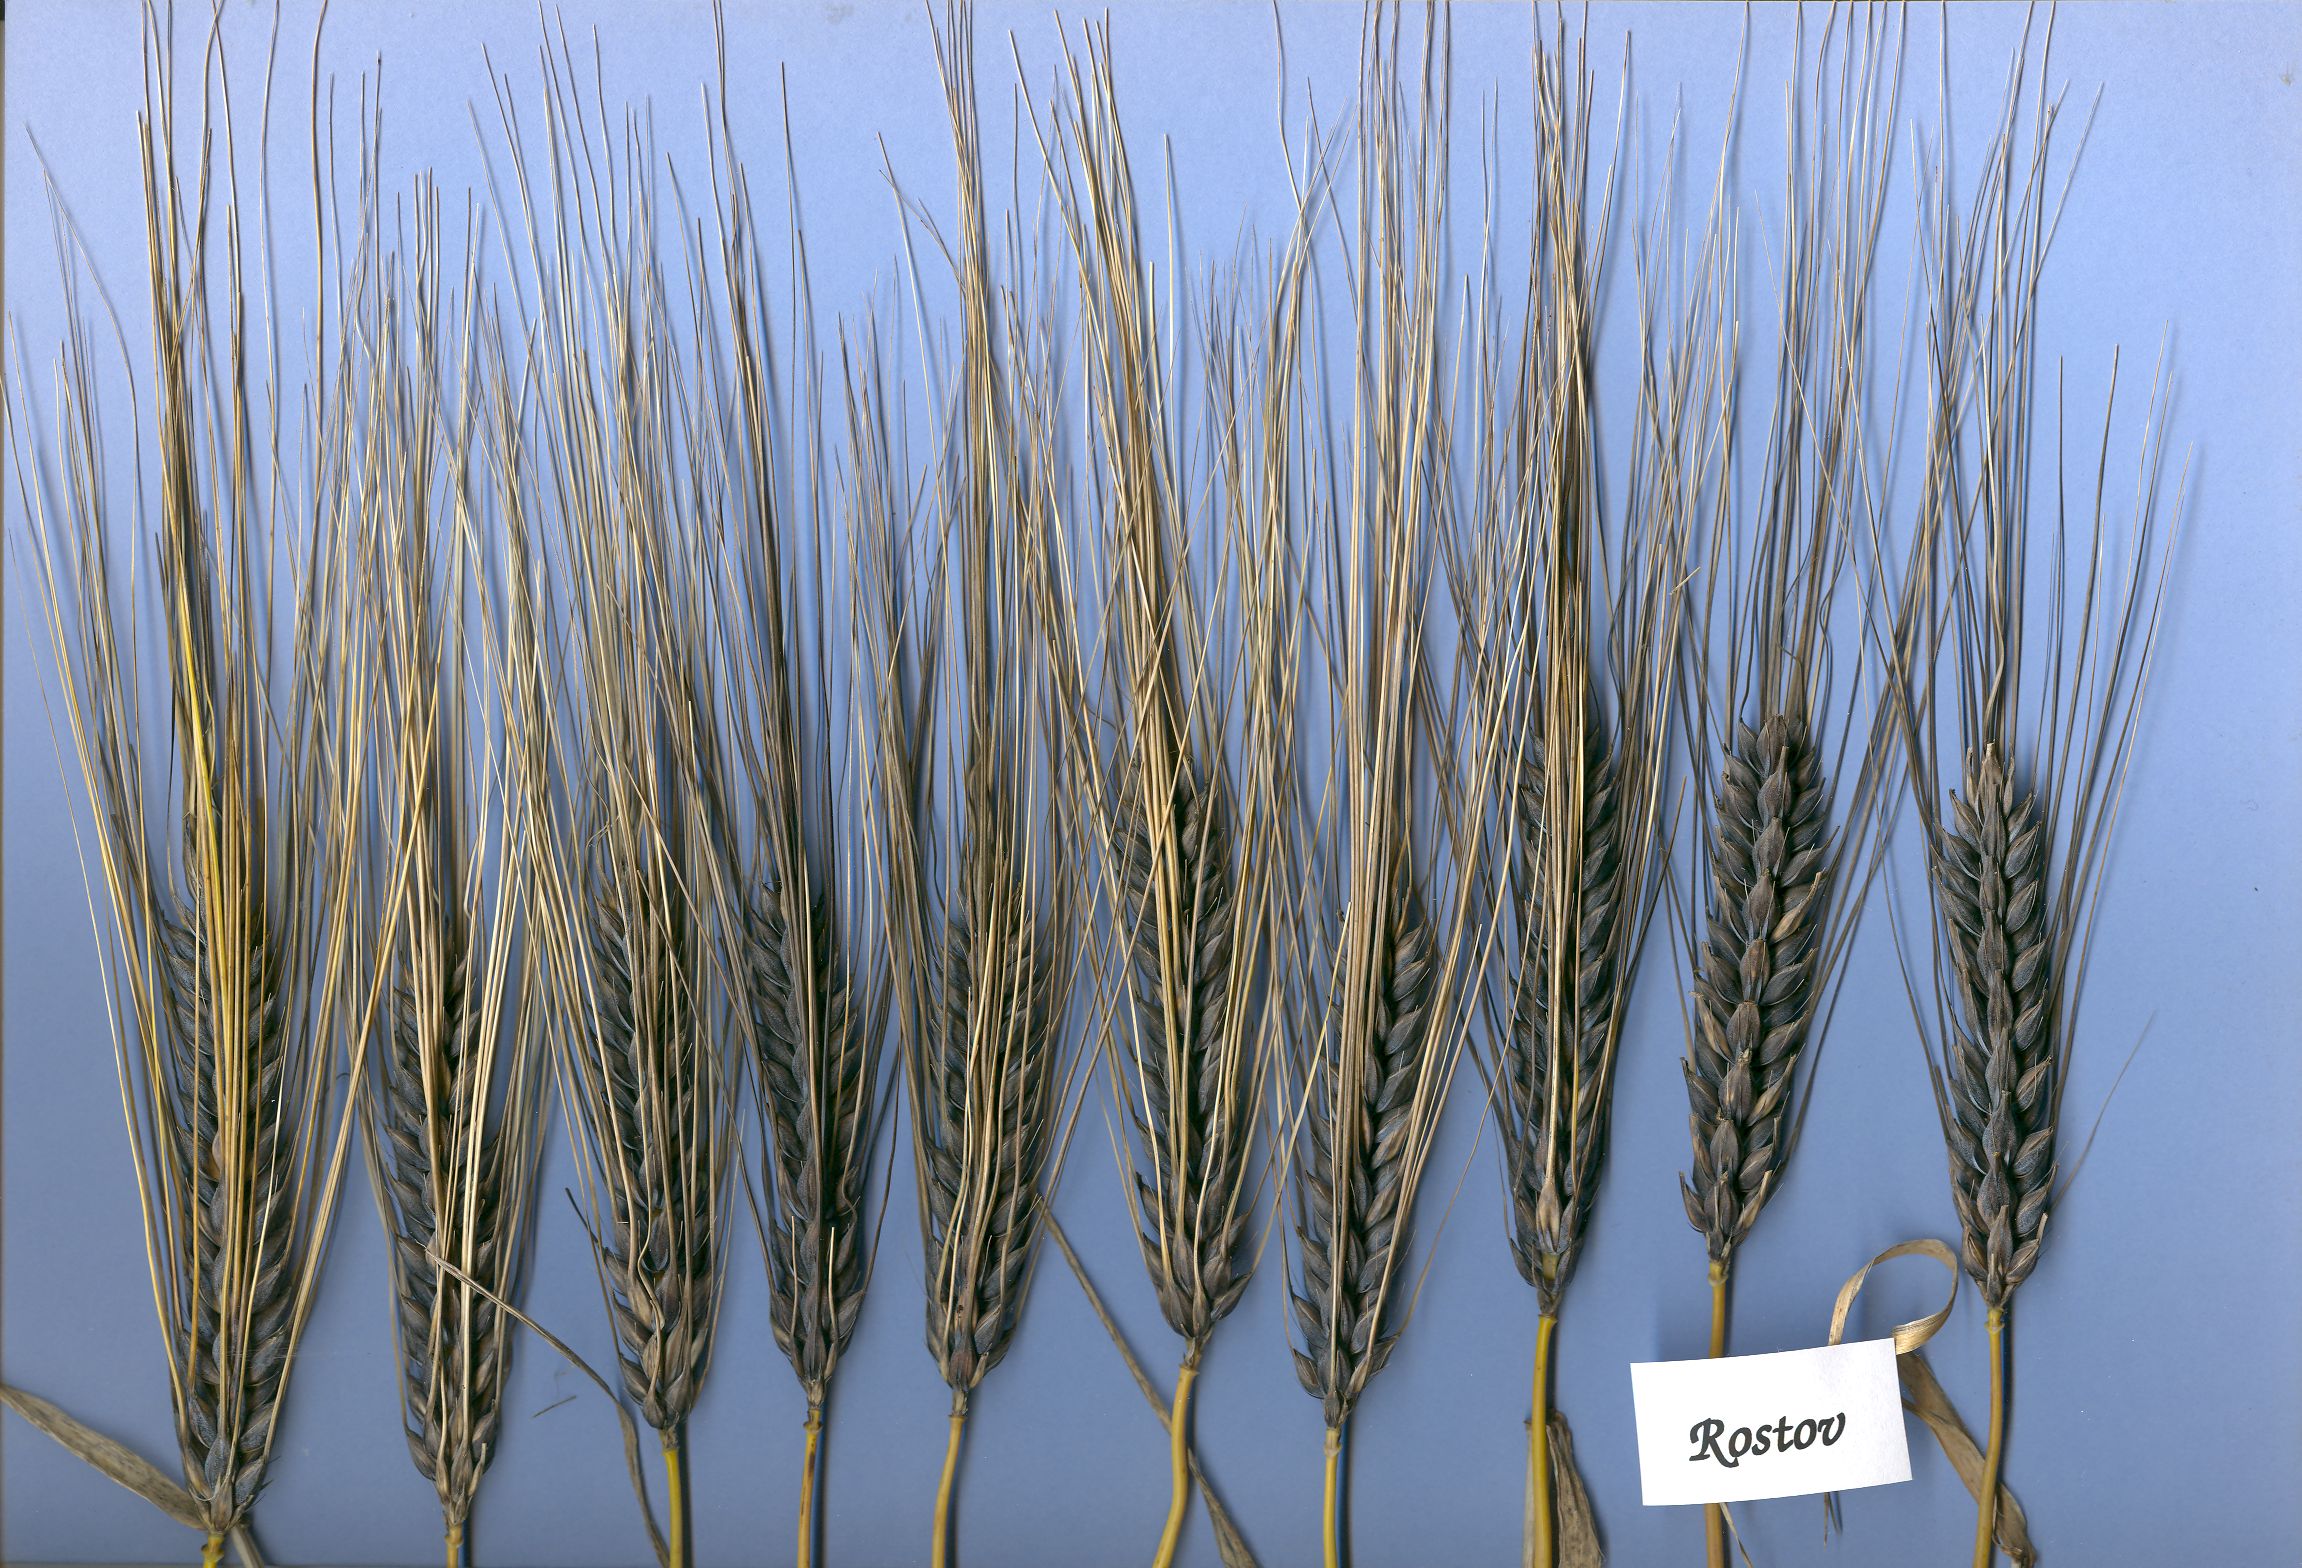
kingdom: Plantae
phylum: Tracheophyta
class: Liliopsida
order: Poales
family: Poaceae
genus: Hordeum
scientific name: Hordeum vulgare
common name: Common barley
